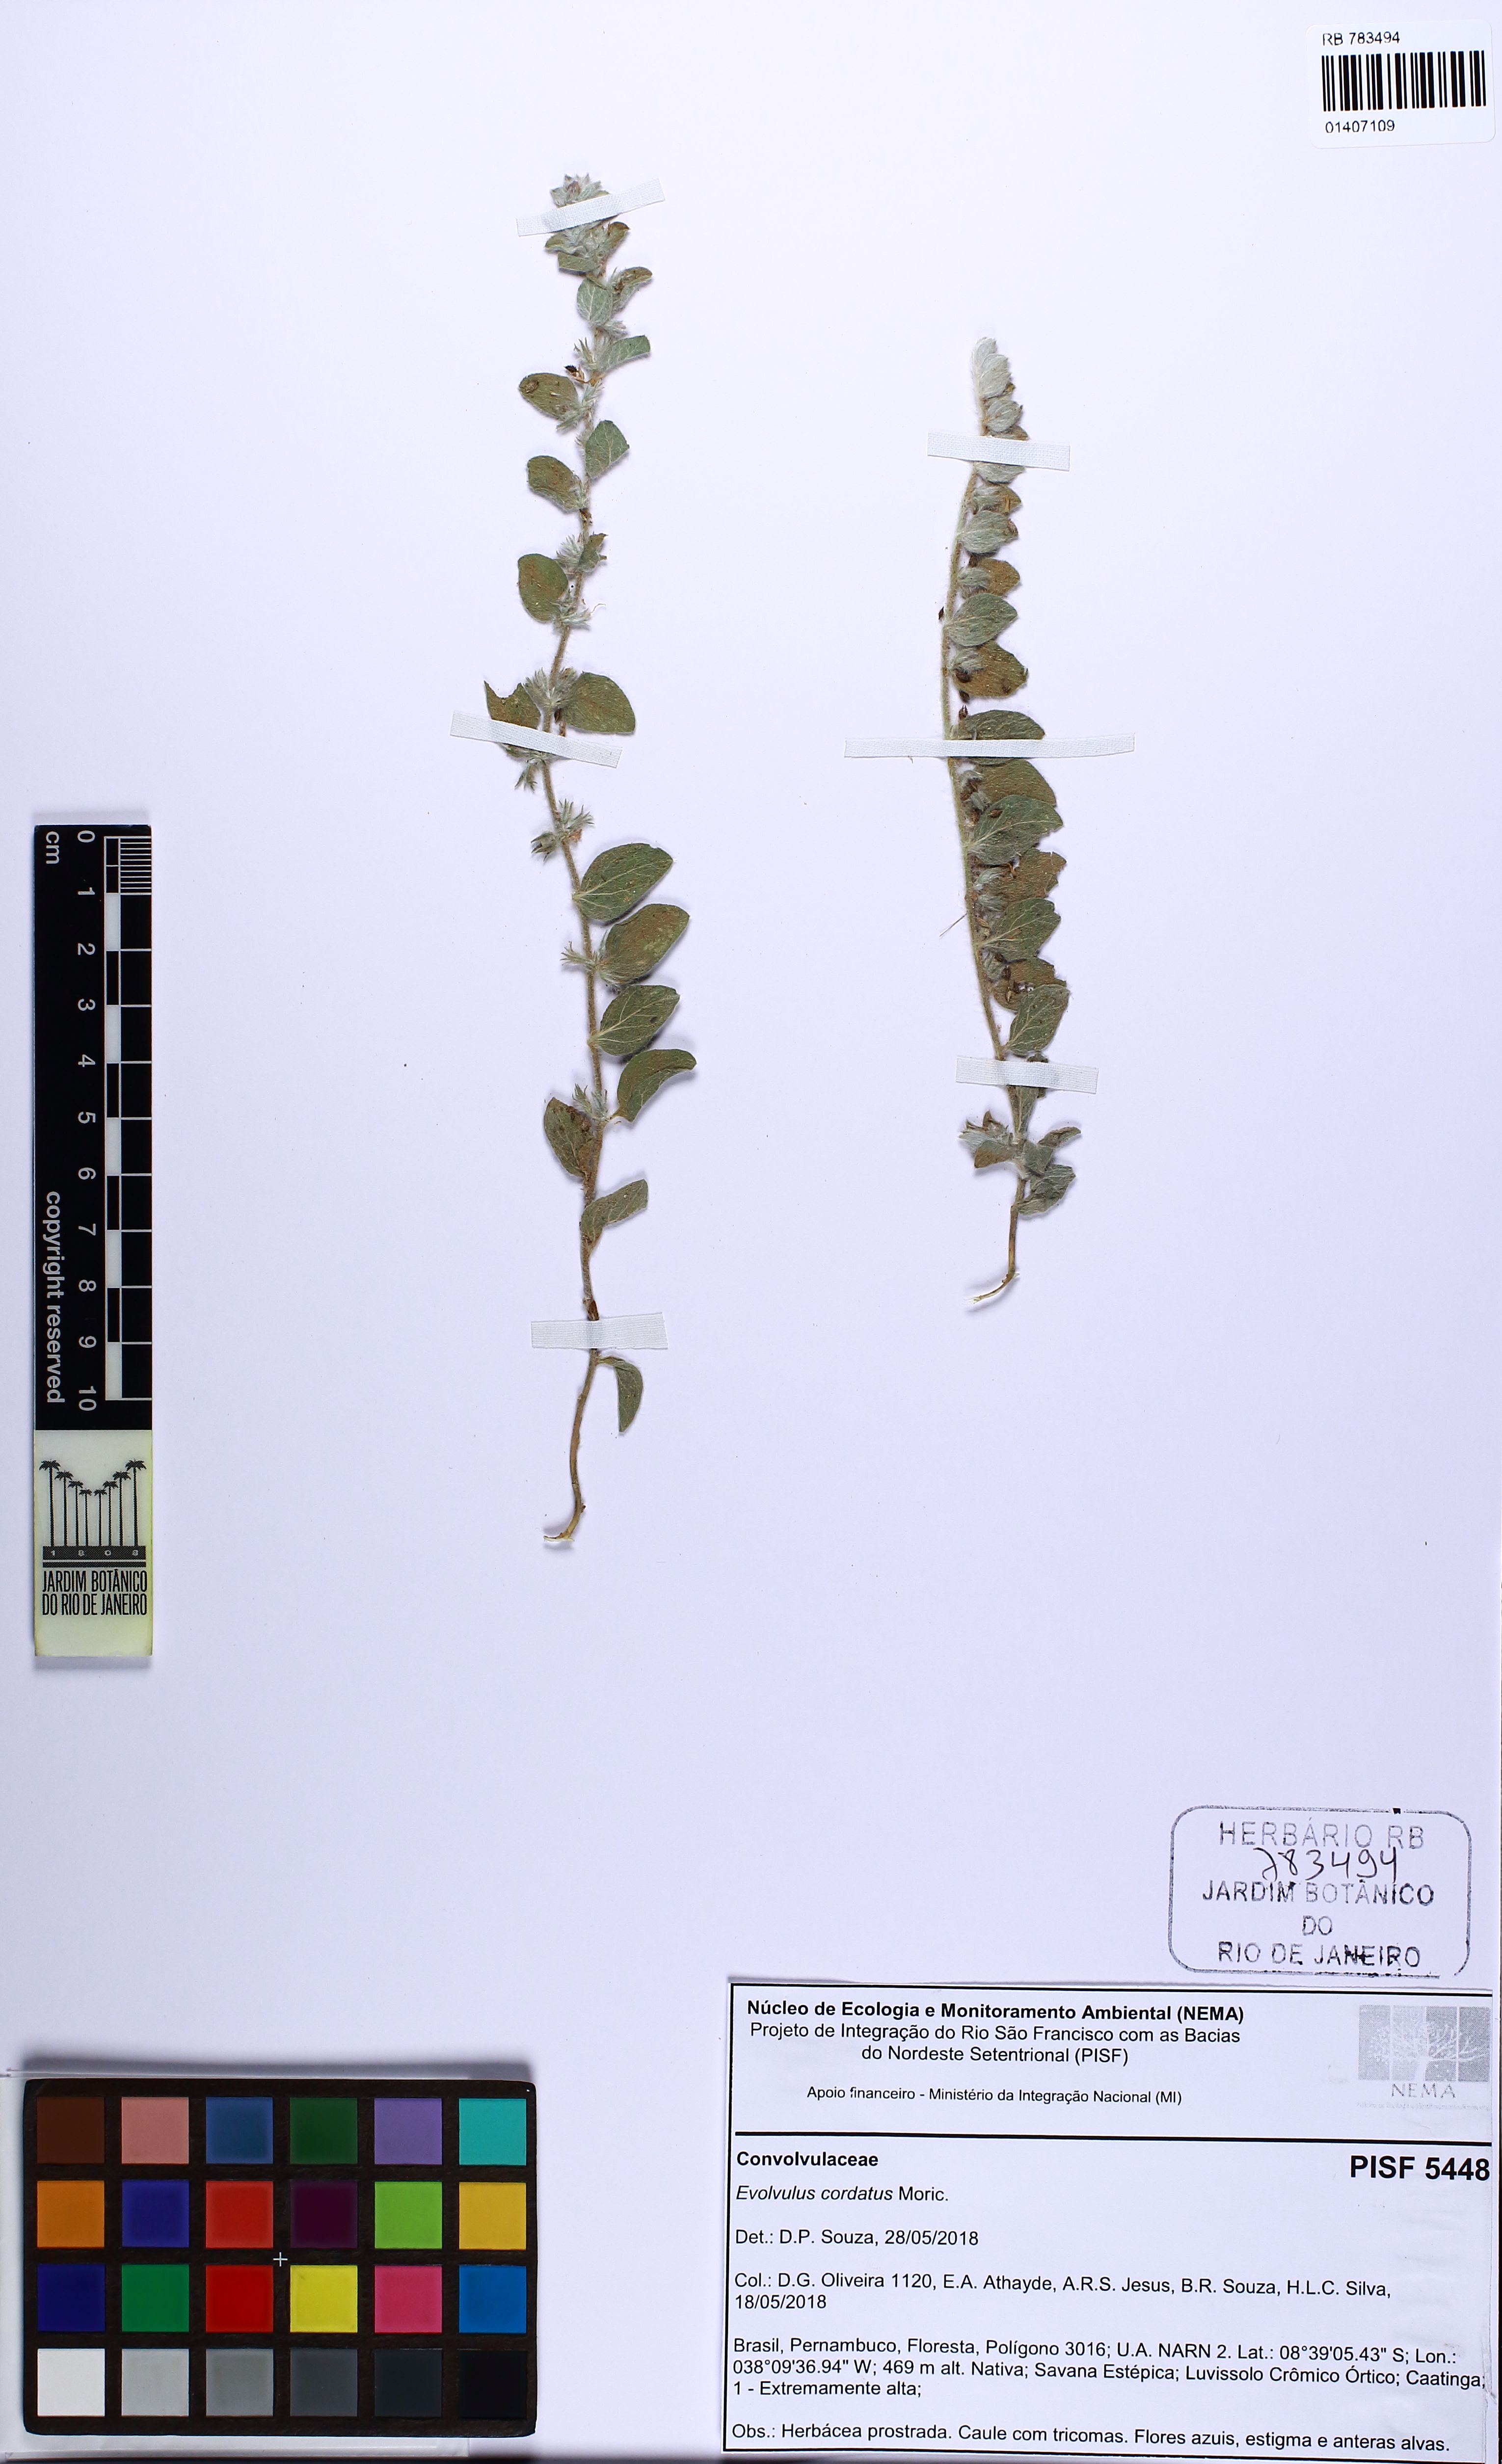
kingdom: Plantae
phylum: Tracheophyta
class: Magnoliopsida
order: Solanales
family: Convolvulaceae
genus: Evolvulus
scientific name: Evolvulus cordatus
